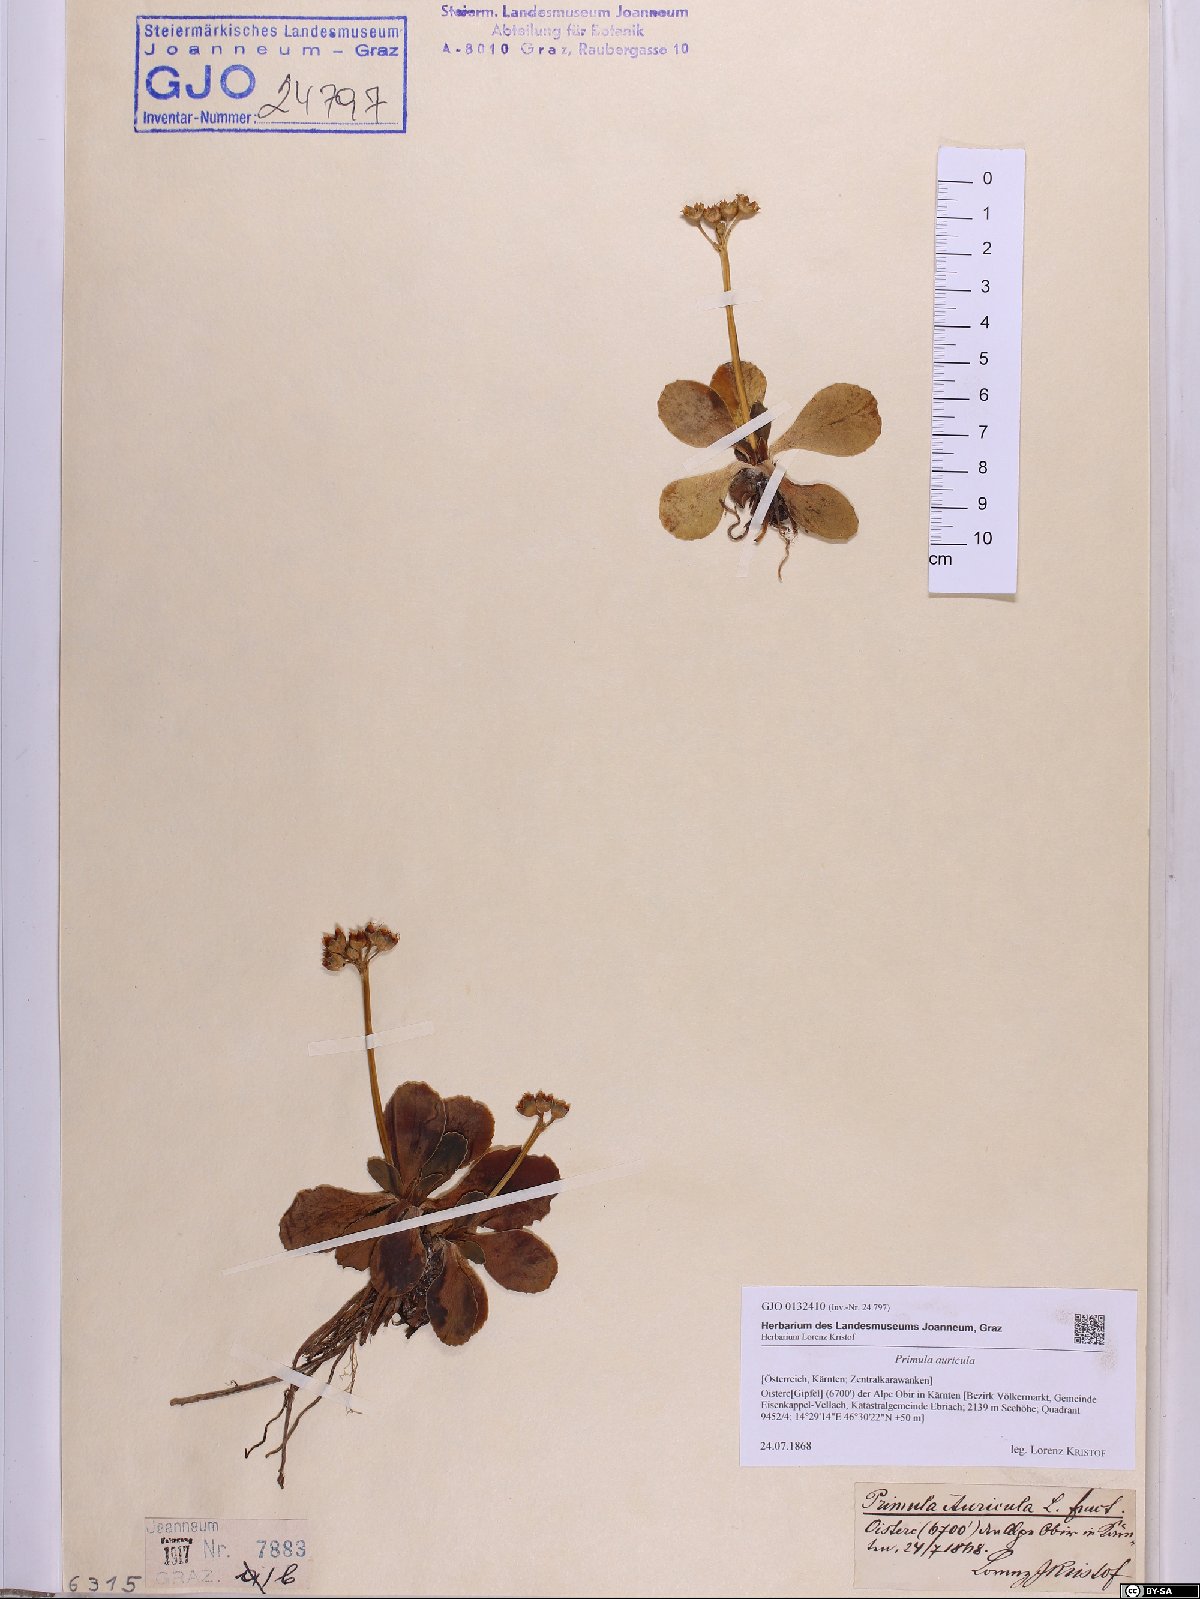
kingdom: Plantae
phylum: Tracheophyta
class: Magnoliopsida
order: Ericales
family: Primulaceae
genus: Primula
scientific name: Primula auricula
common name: Auricula
